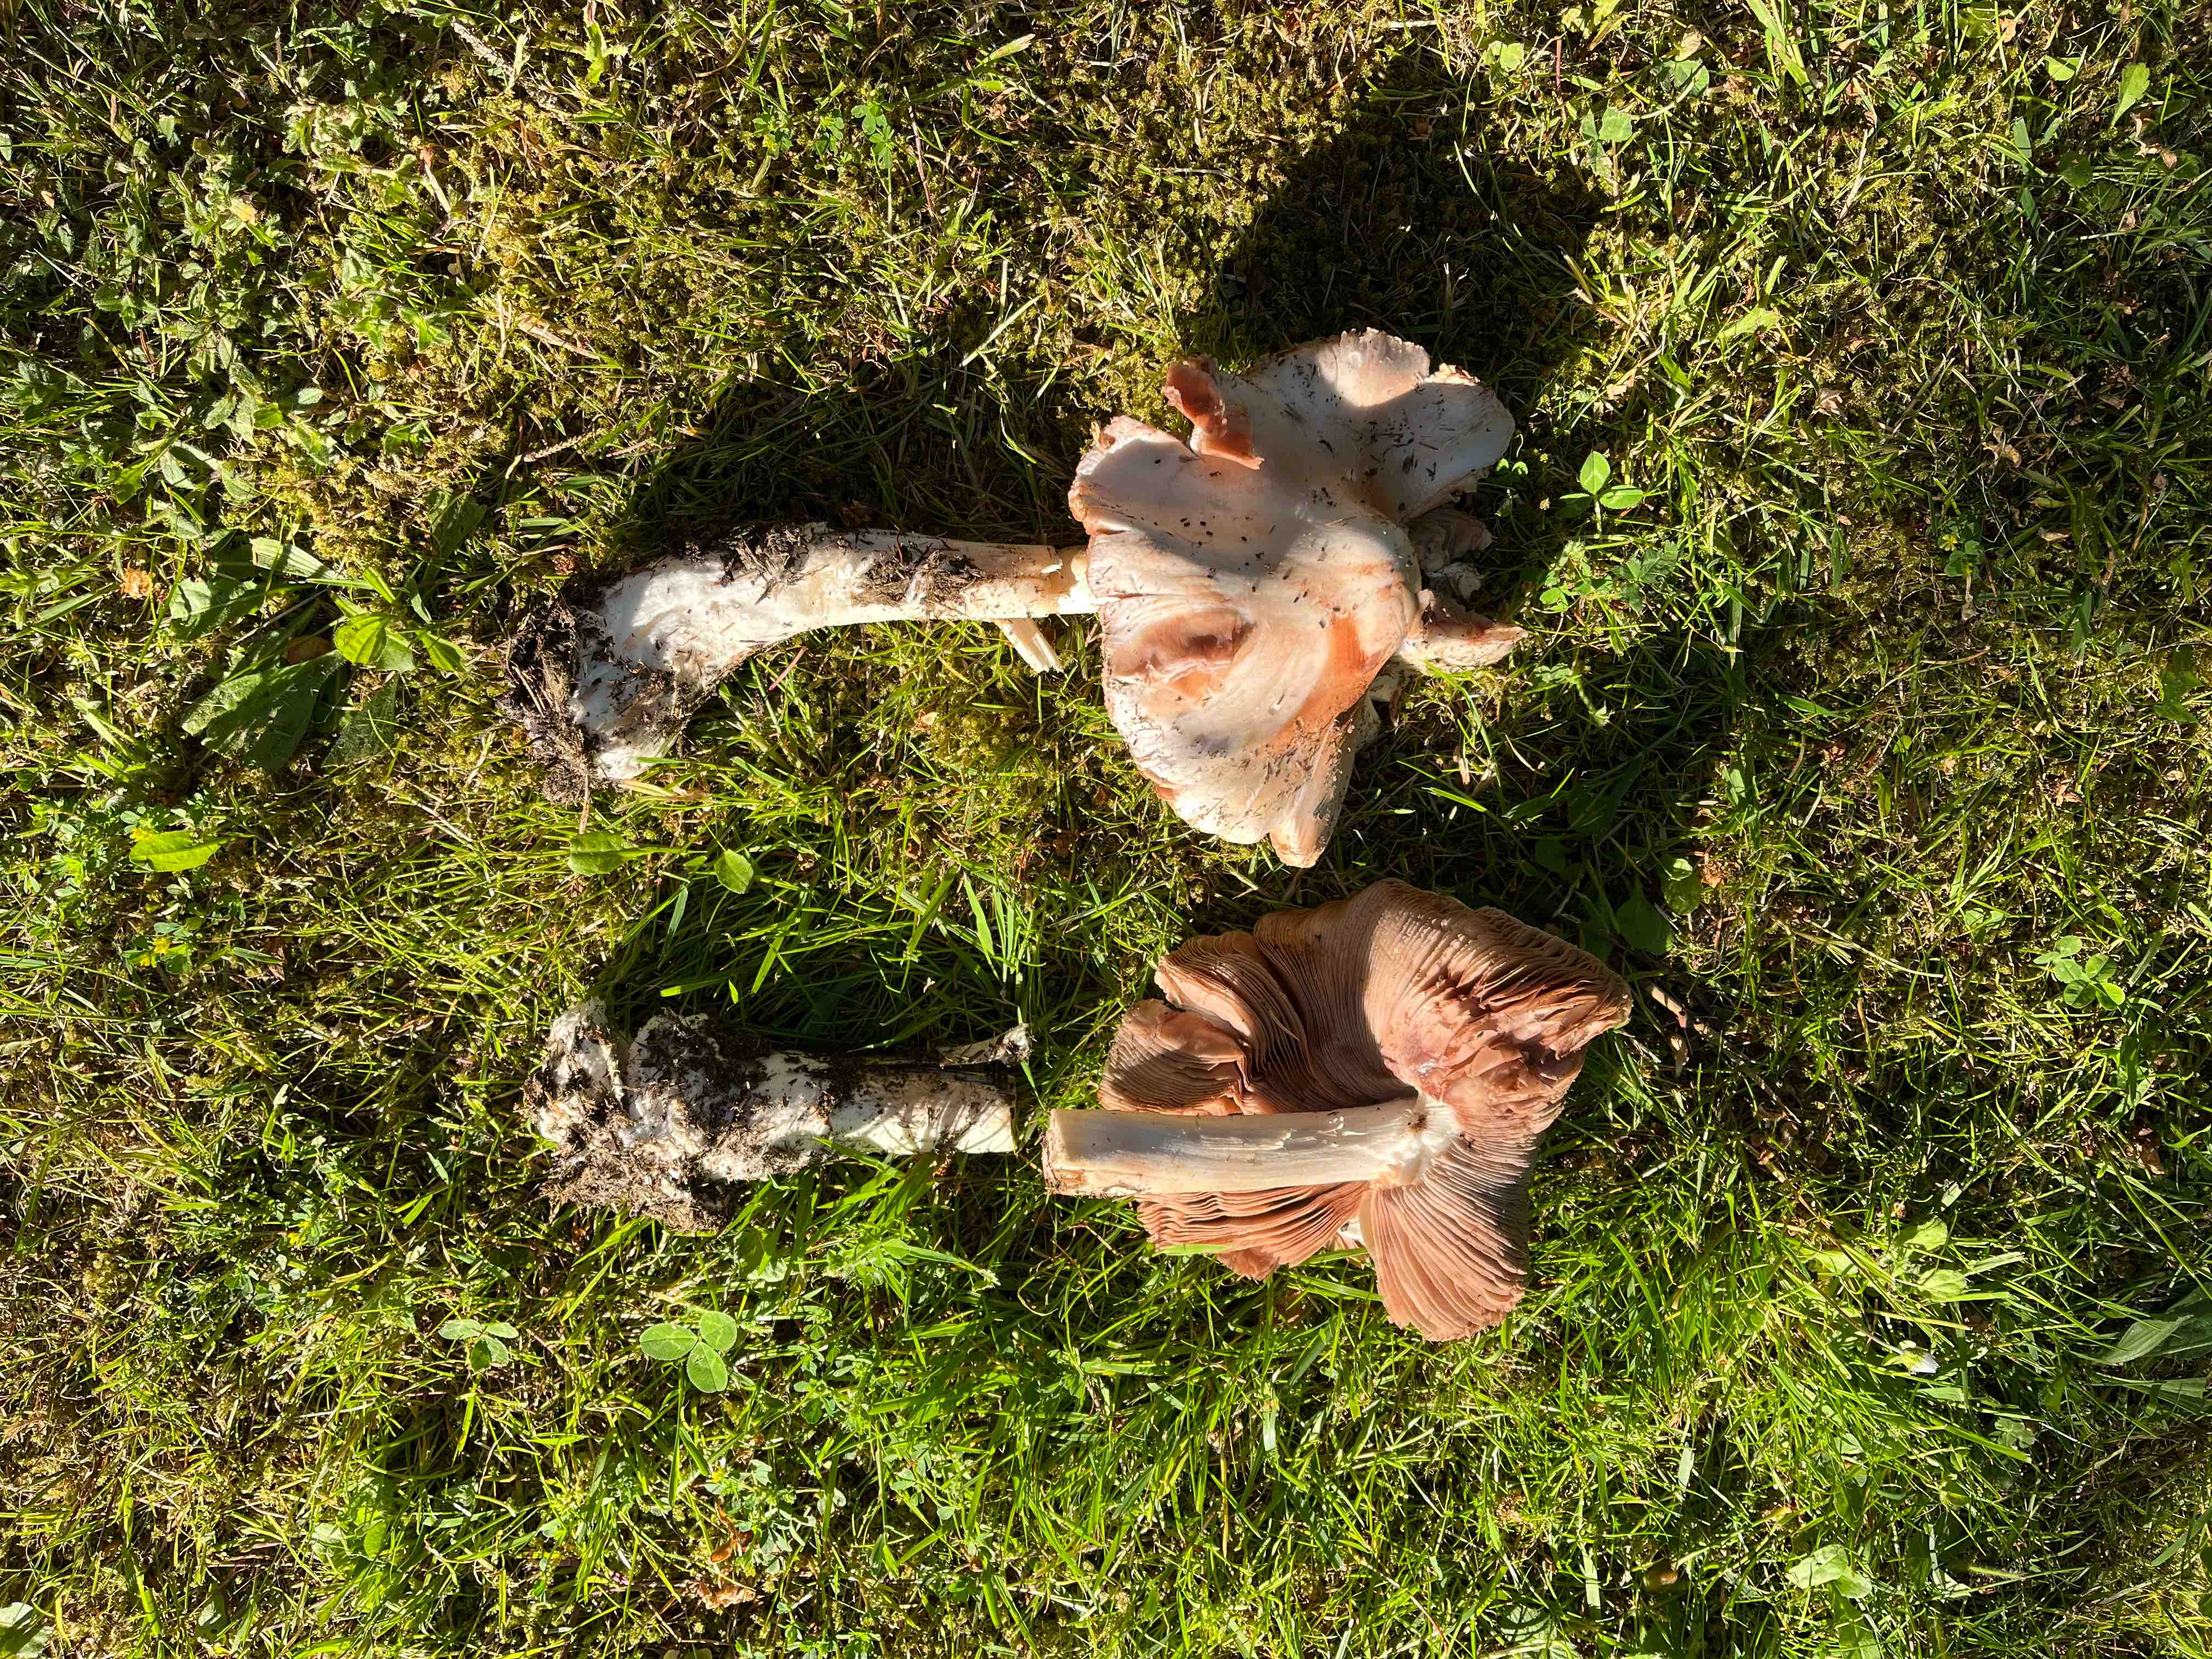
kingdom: Fungi
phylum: Basidiomycota
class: Agaricomycetes
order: Agaricales
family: Pluteaceae
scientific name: Pluteaceae
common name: skærmhatfamilien
